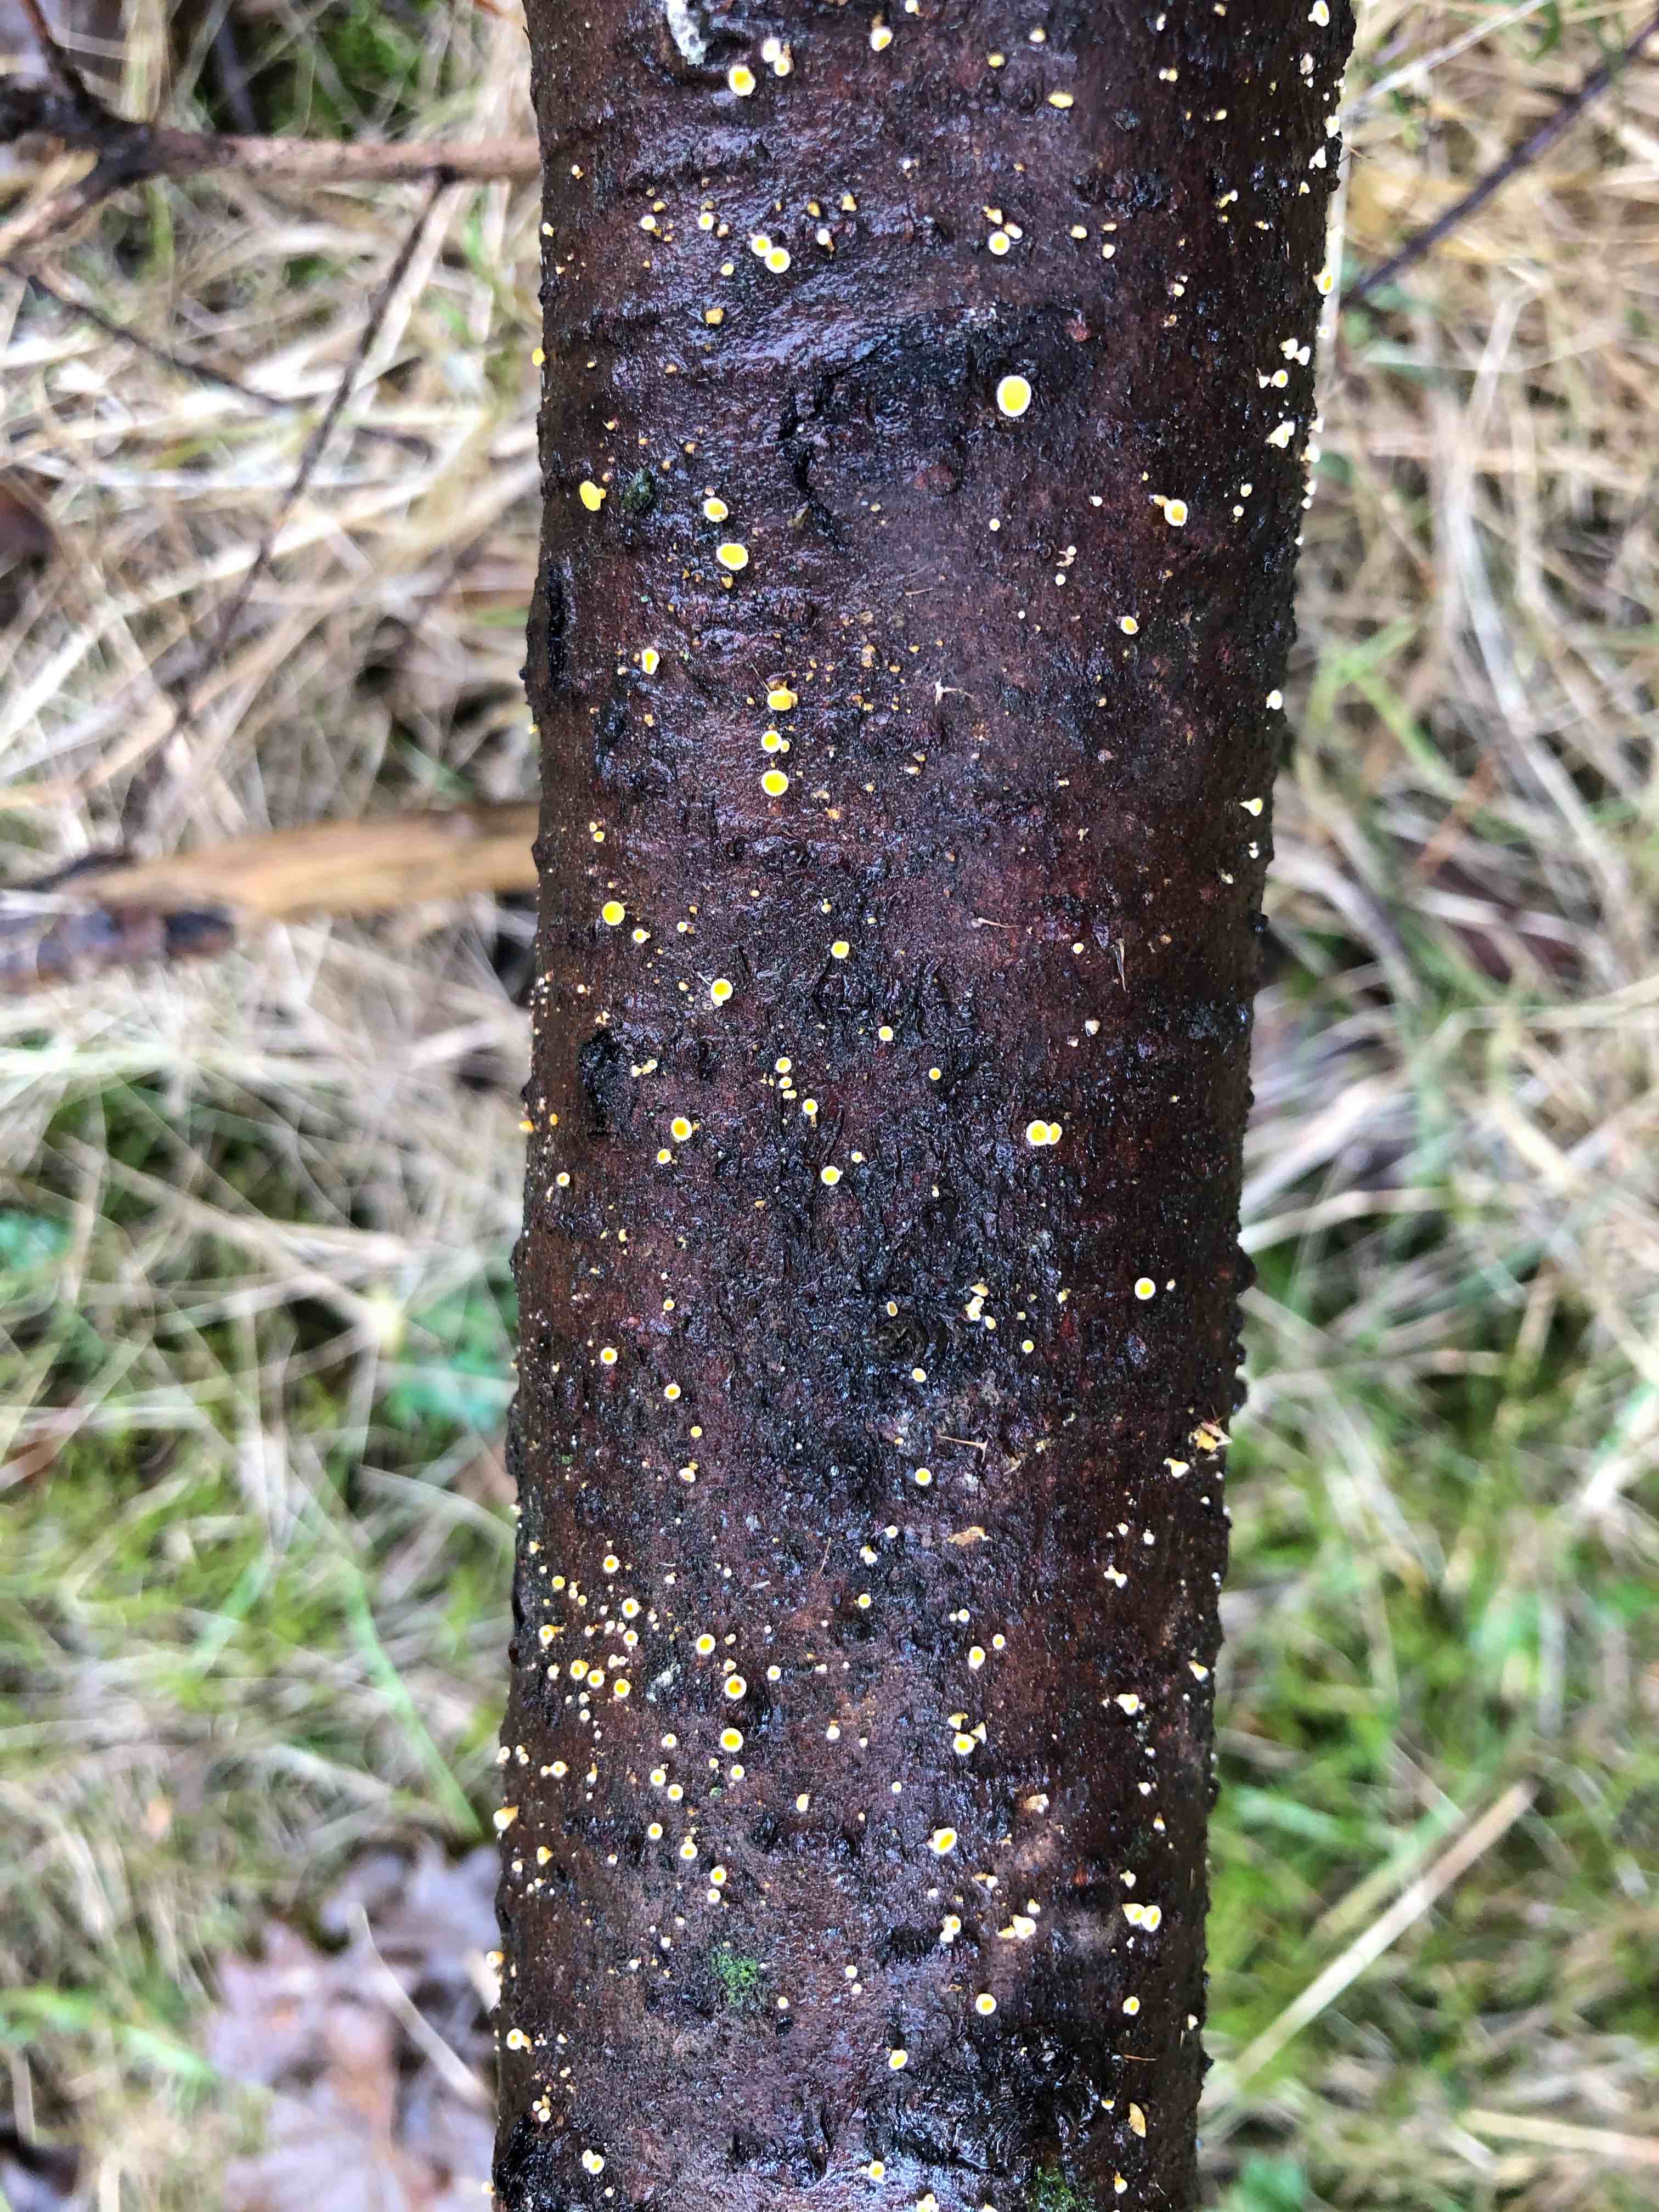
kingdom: Fungi
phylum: Ascomycota
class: Leotiomycetes
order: Helotiales
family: Lachnaceae
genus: Lachnellula
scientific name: Lachnellula
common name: frynseskive
